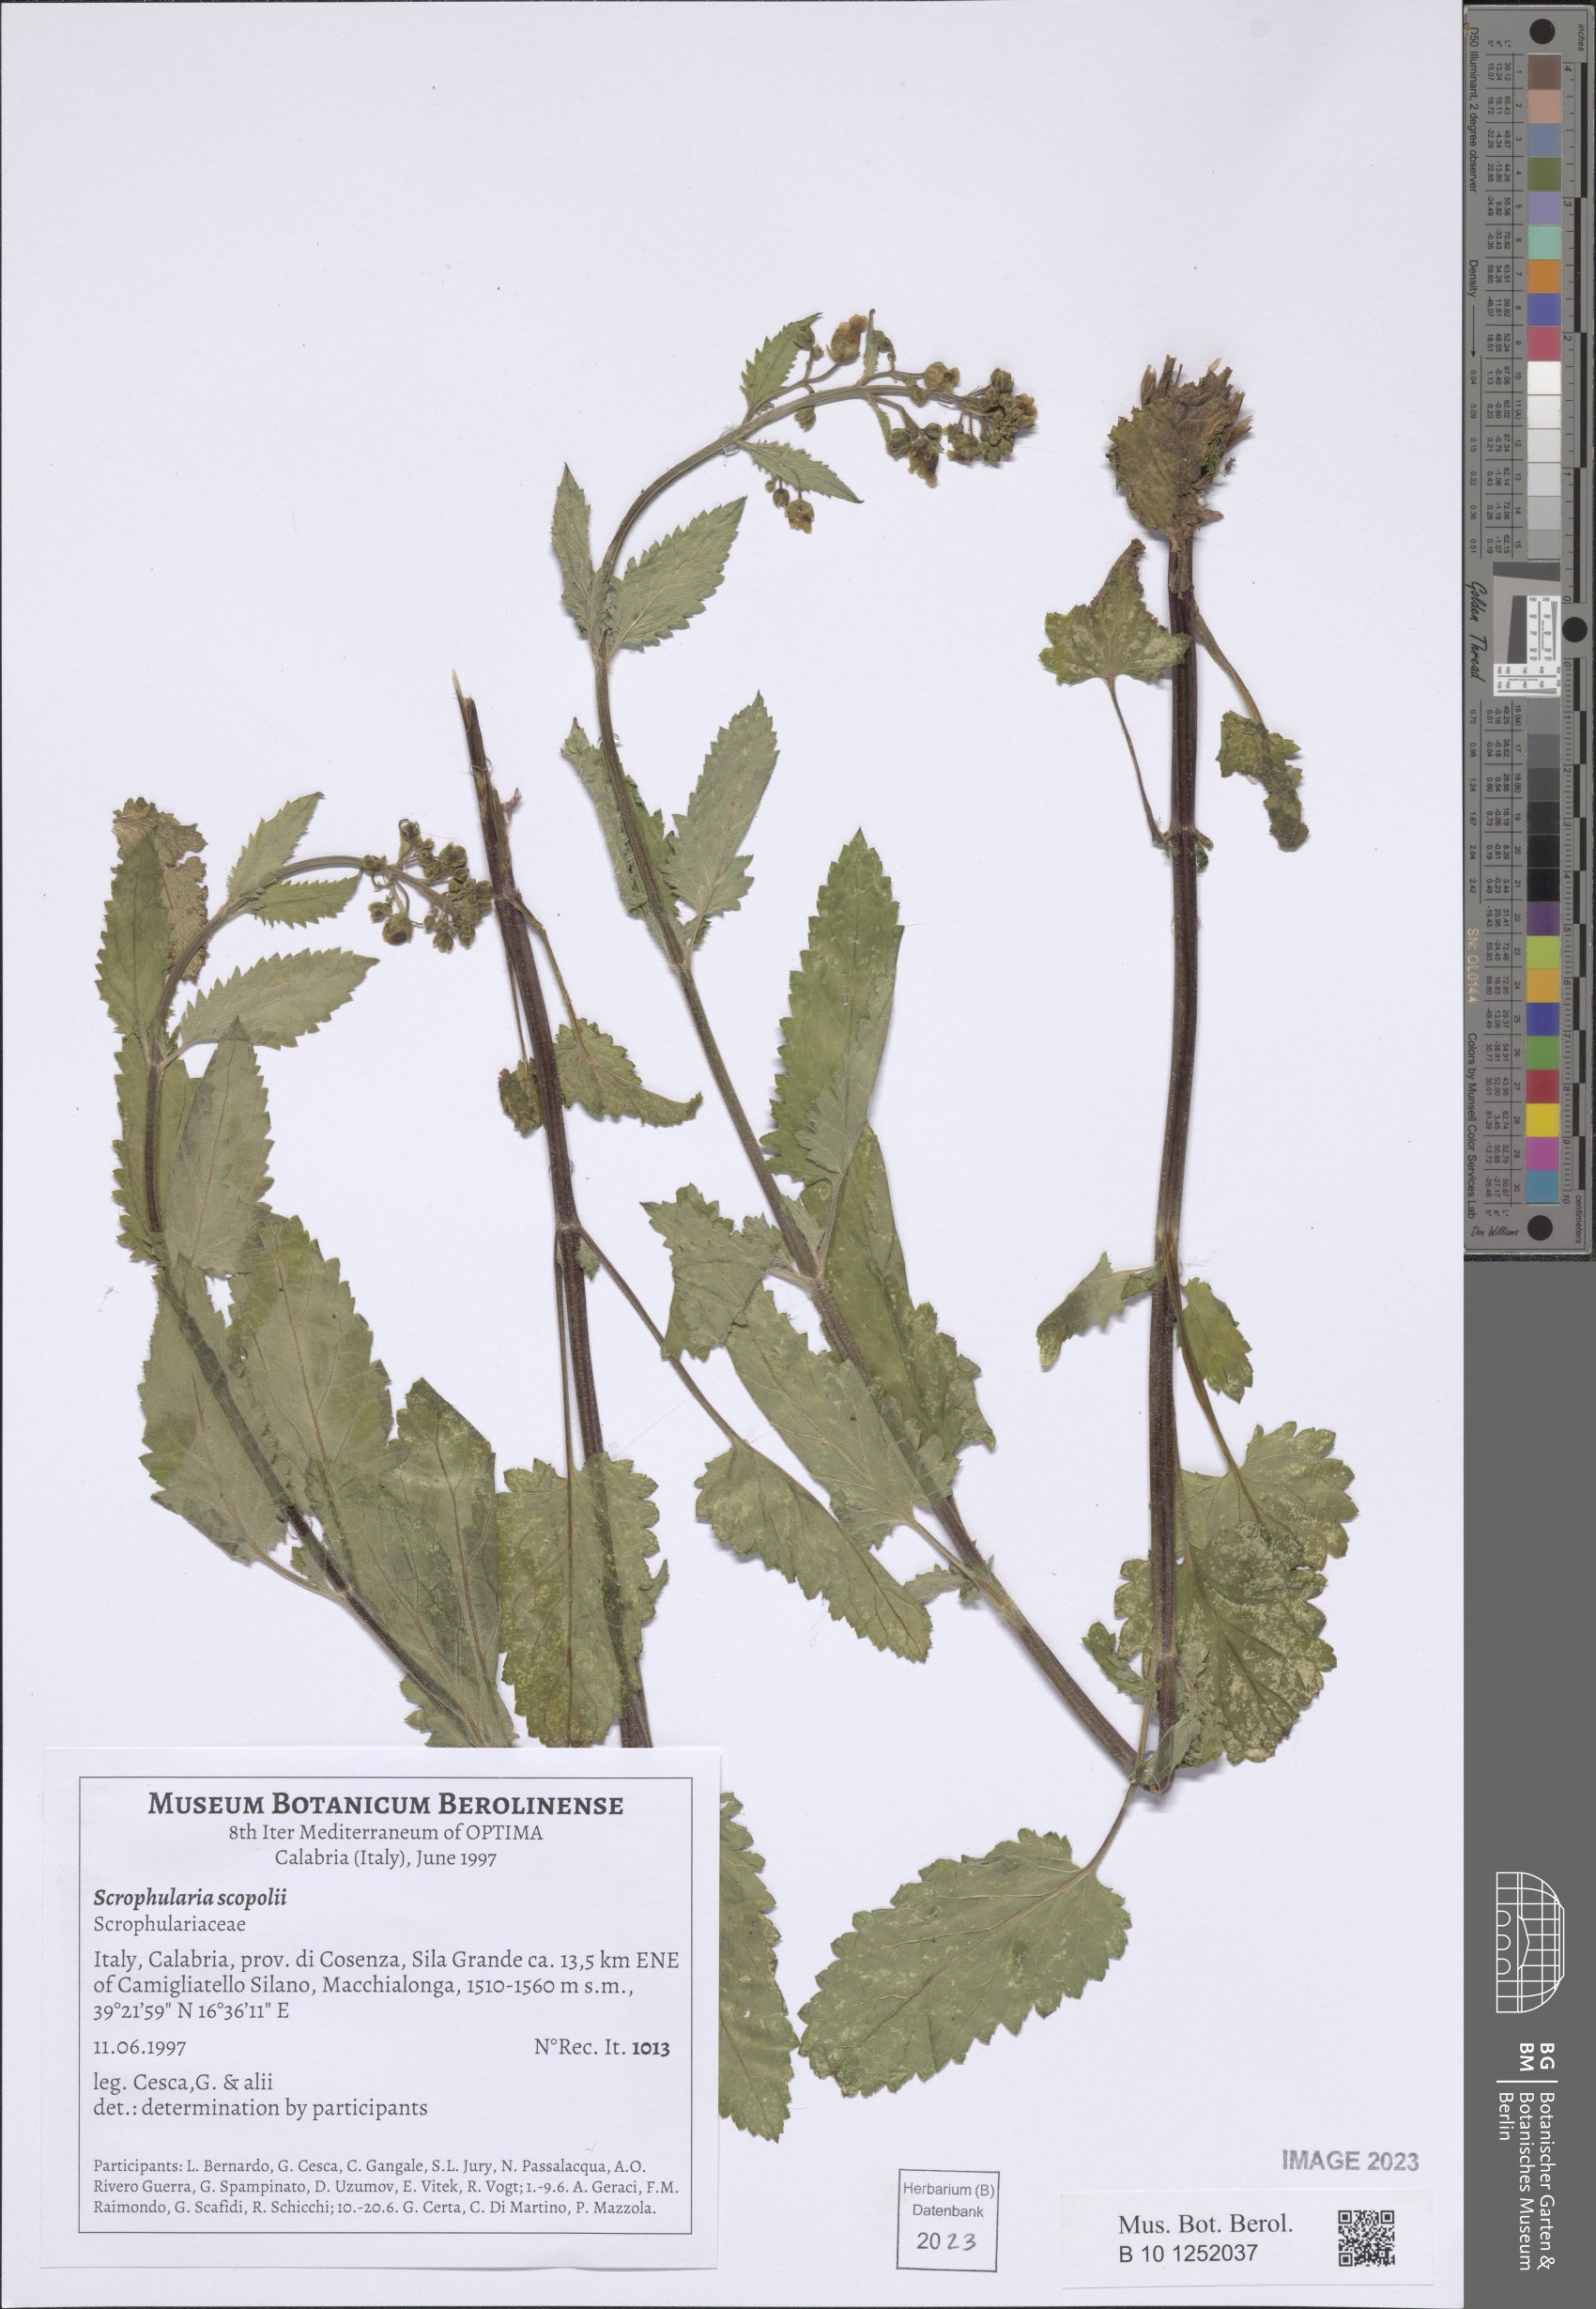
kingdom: Plantae
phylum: Tracheophyta
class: Magnoliopsida
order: Lamiales
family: Scrophulariaceae
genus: Scrophularia
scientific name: Scrophularia scopolii
